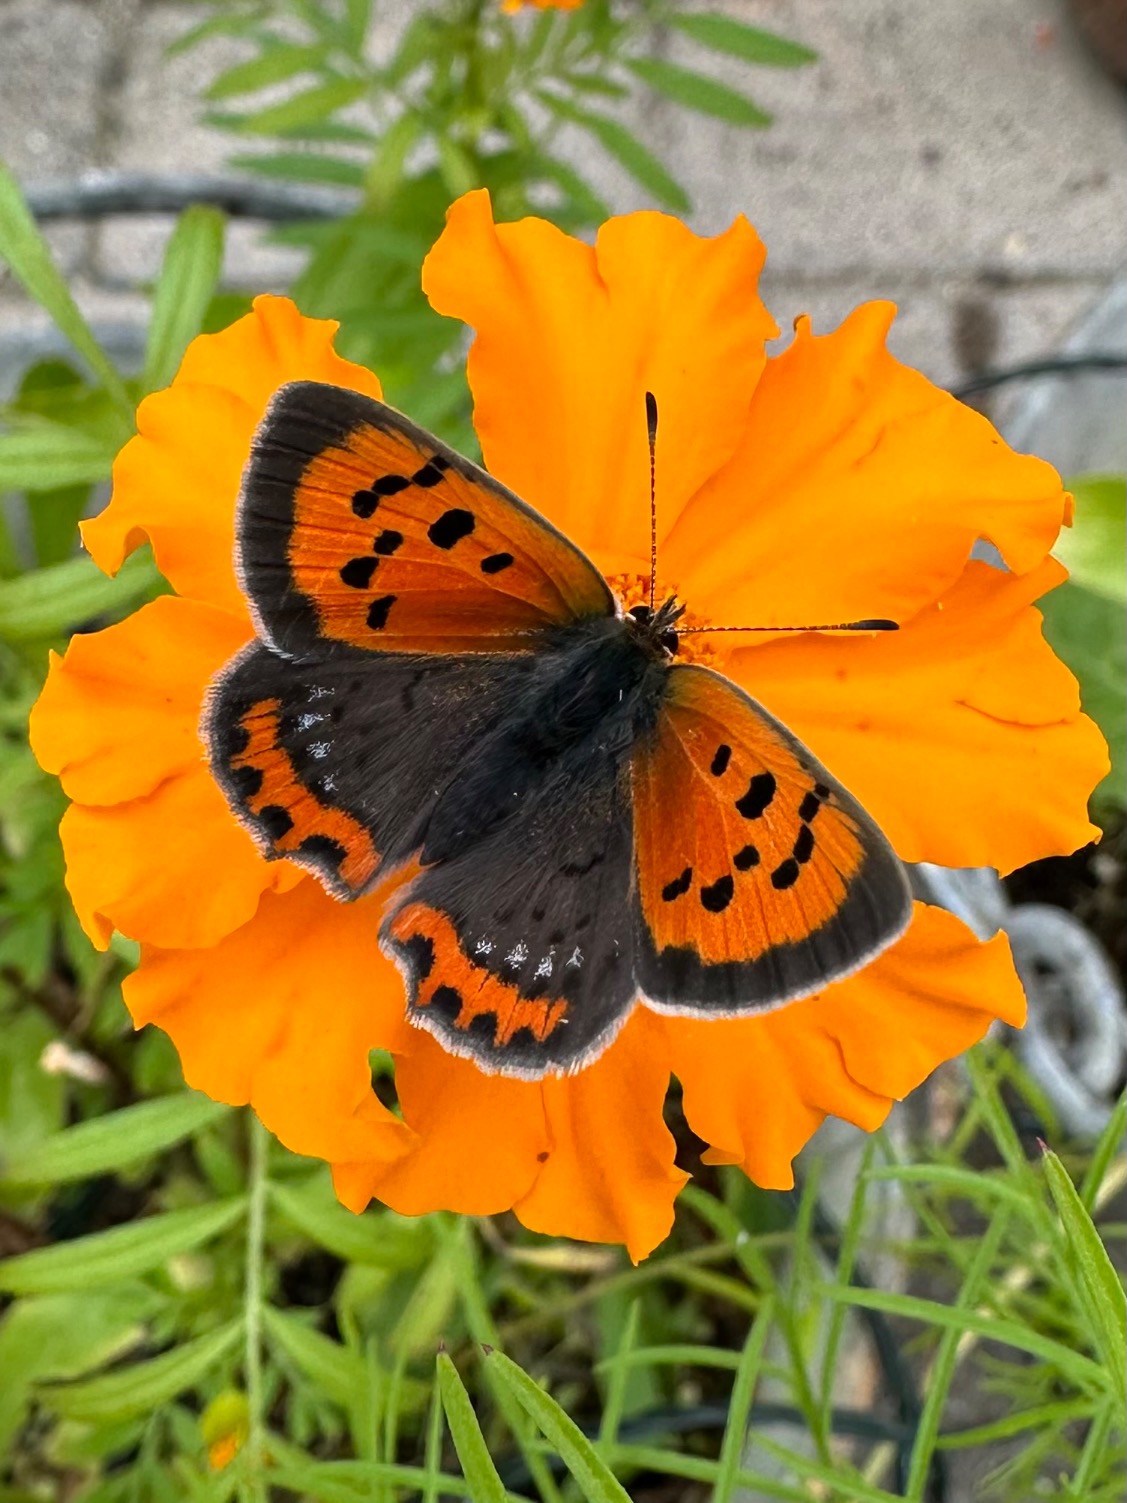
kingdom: Animalia
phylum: Arthropoda
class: Insecta
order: Lepidoptera
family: Lycaenidae
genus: Lycaena
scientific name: Lycaena phlaeas
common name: Lille ildfugl
